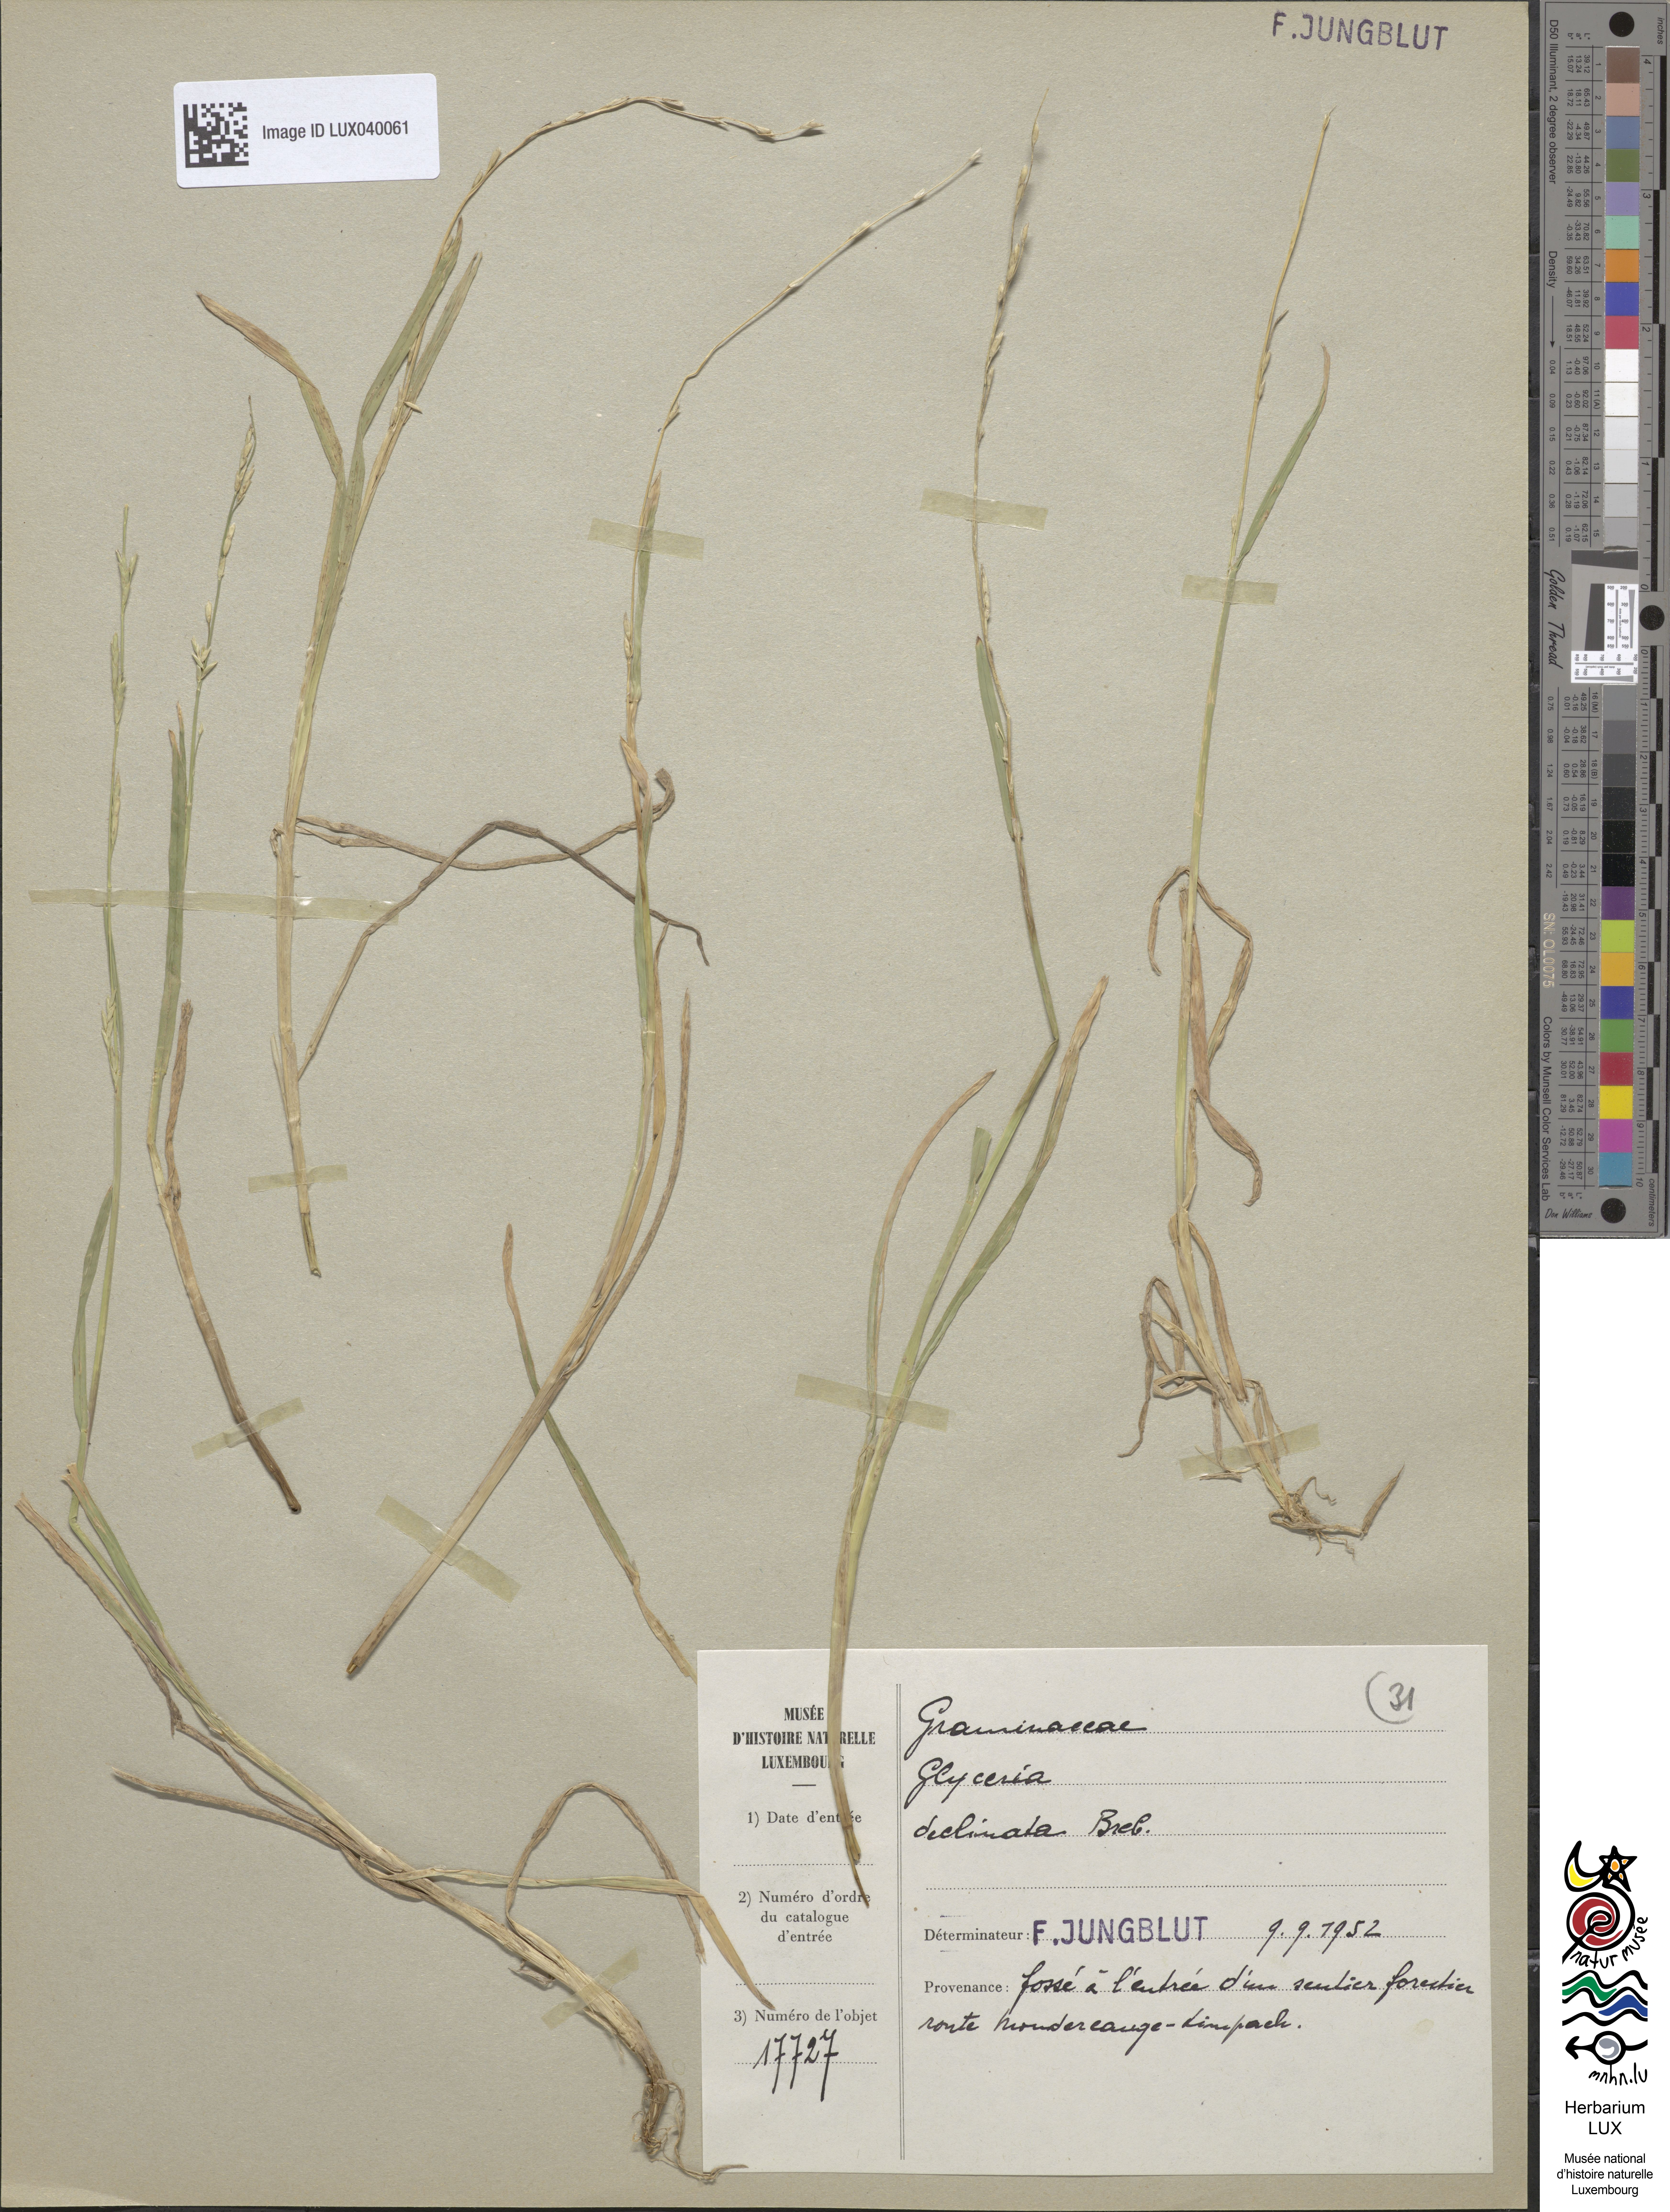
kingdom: Plantae
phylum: Tracheophyta
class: Liliopsida
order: Poales
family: Poaceae
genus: Glyceria
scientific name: Glyceria declinata
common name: Small sweet-grass
